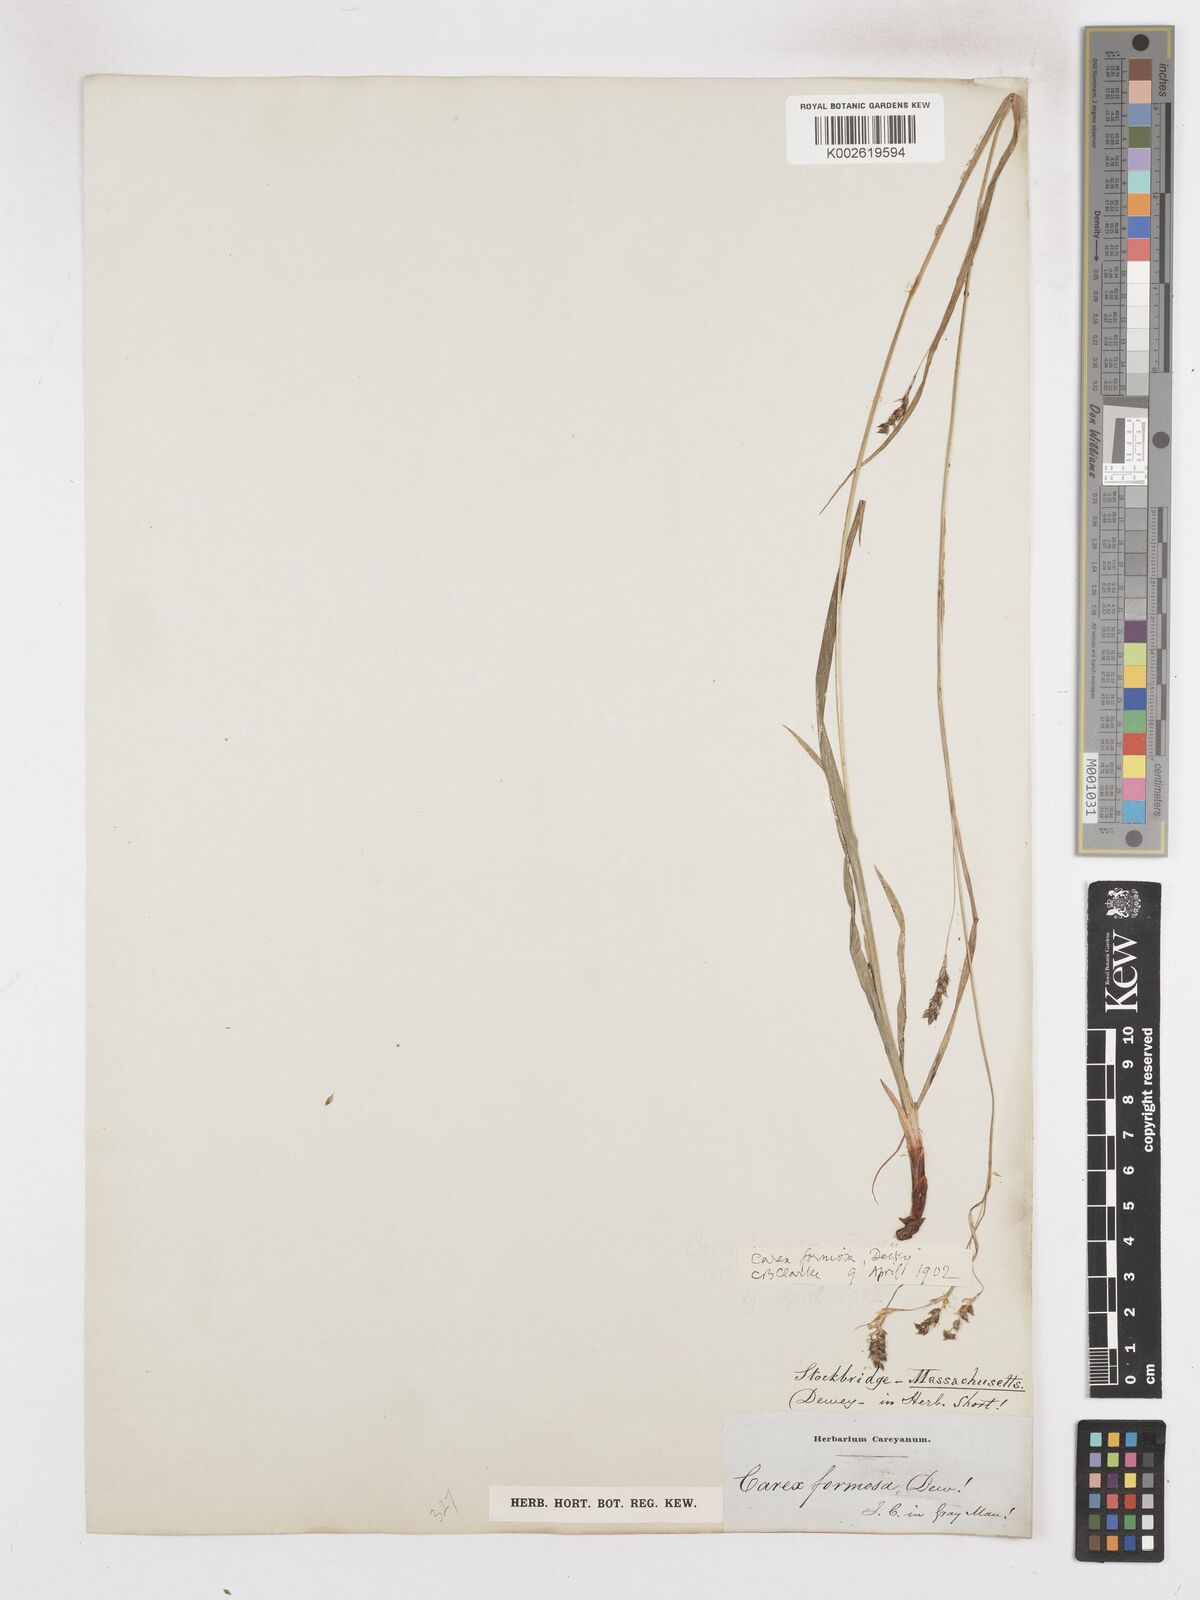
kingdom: Plantae
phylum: Tracheophyta
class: Liliopsida
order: Poales
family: Cyperaceae
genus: Carex
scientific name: Carex formosa
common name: Awnless graceful sedge
